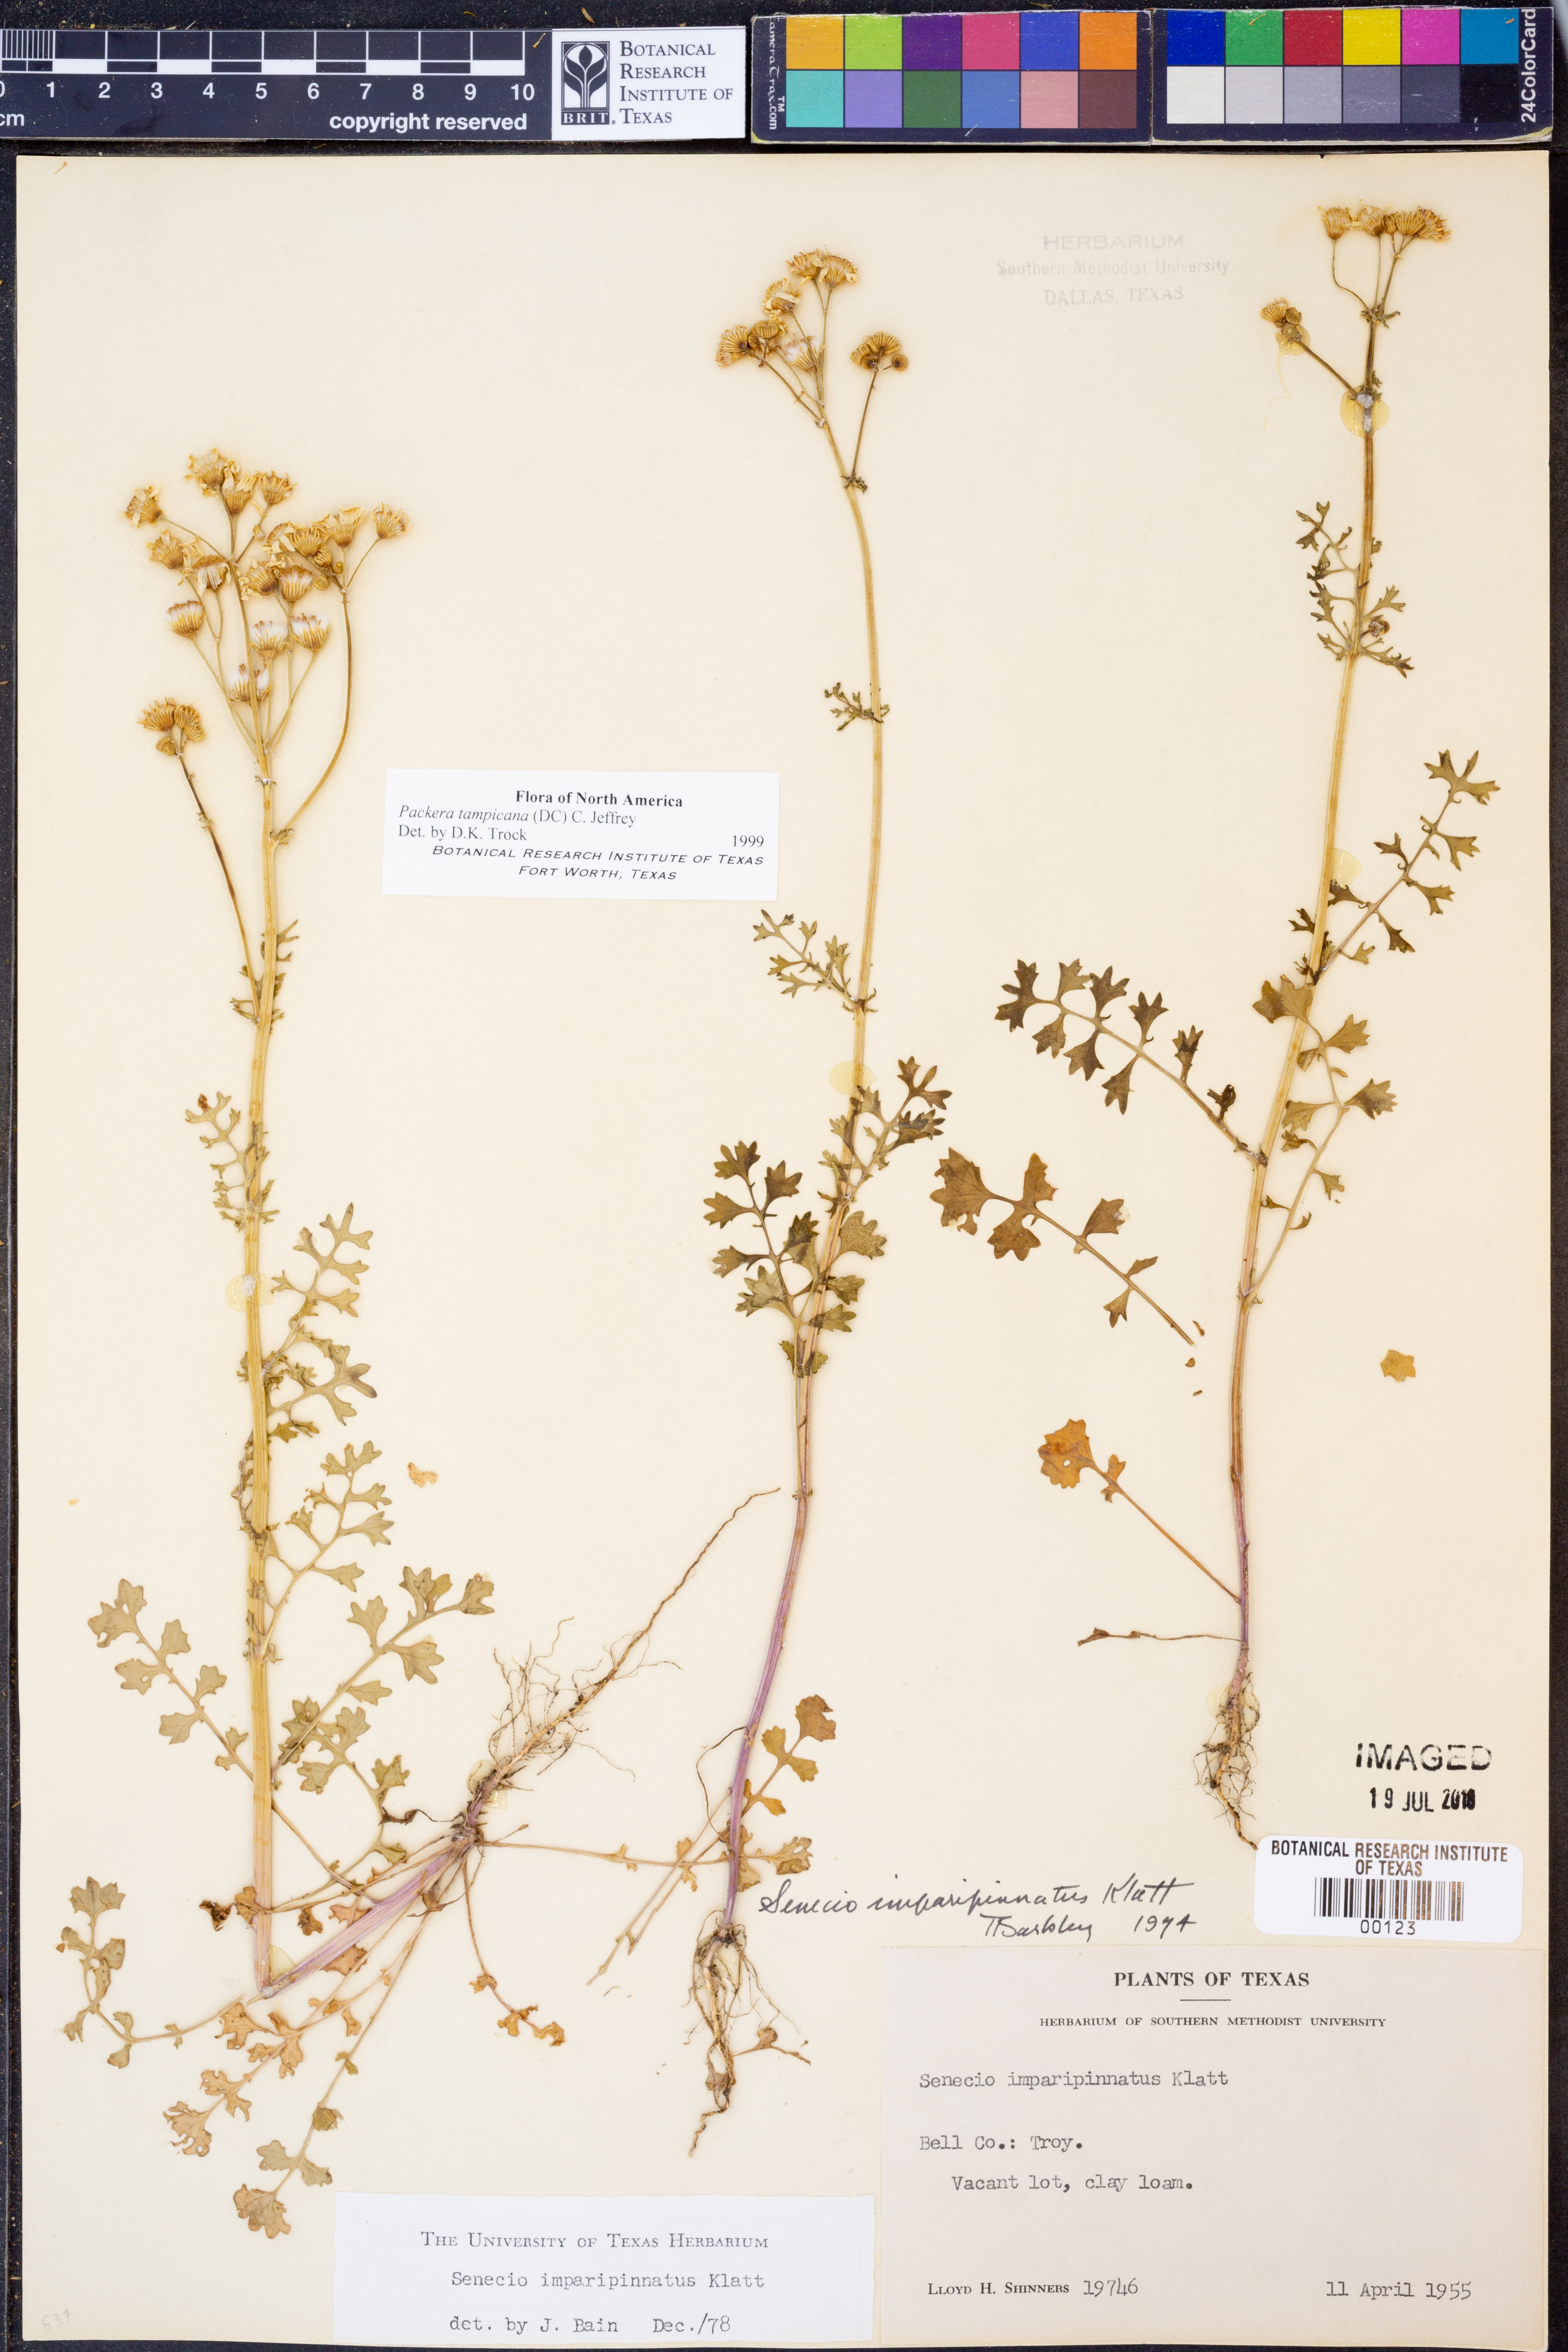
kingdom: Plantae
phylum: Tracheophyta
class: Magnoliopsida
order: Asterales
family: Asteraceae
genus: Packera
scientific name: Packera tampicana
